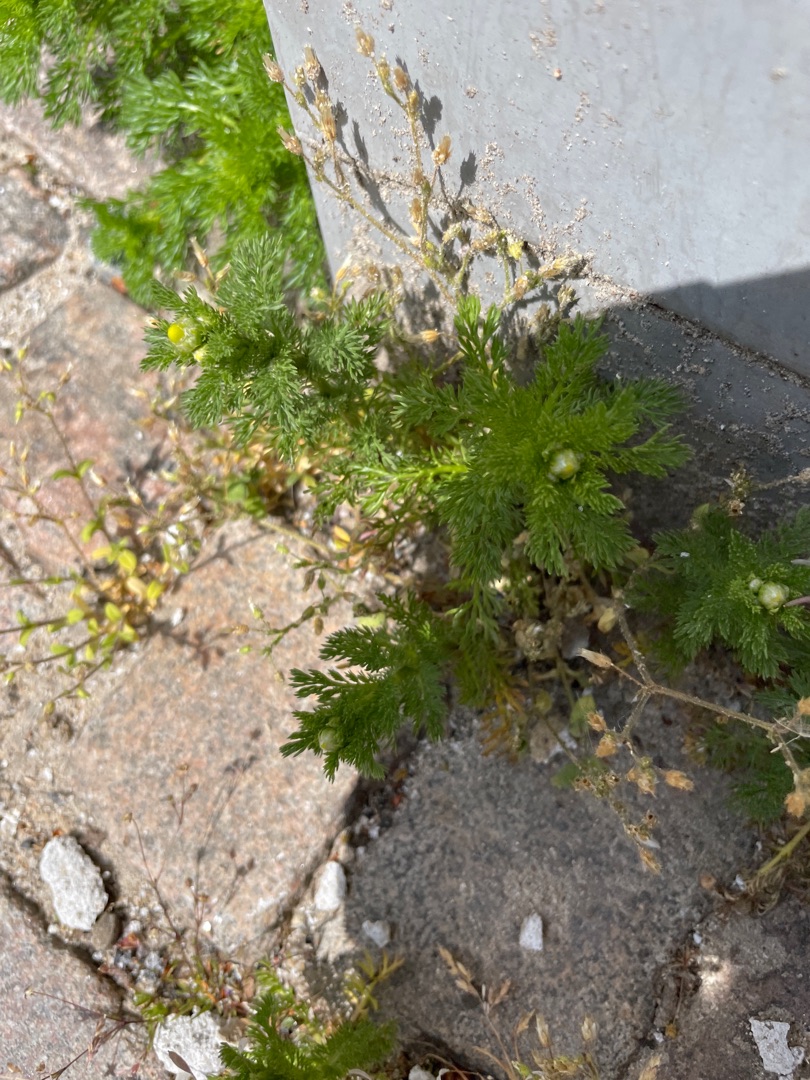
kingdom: Plantae
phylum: Tracheophyta
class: Magnoliopsida
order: Asterales
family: Asteraceae
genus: Matricaria
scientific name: Matricaria discoidea
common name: Skive-kamille
